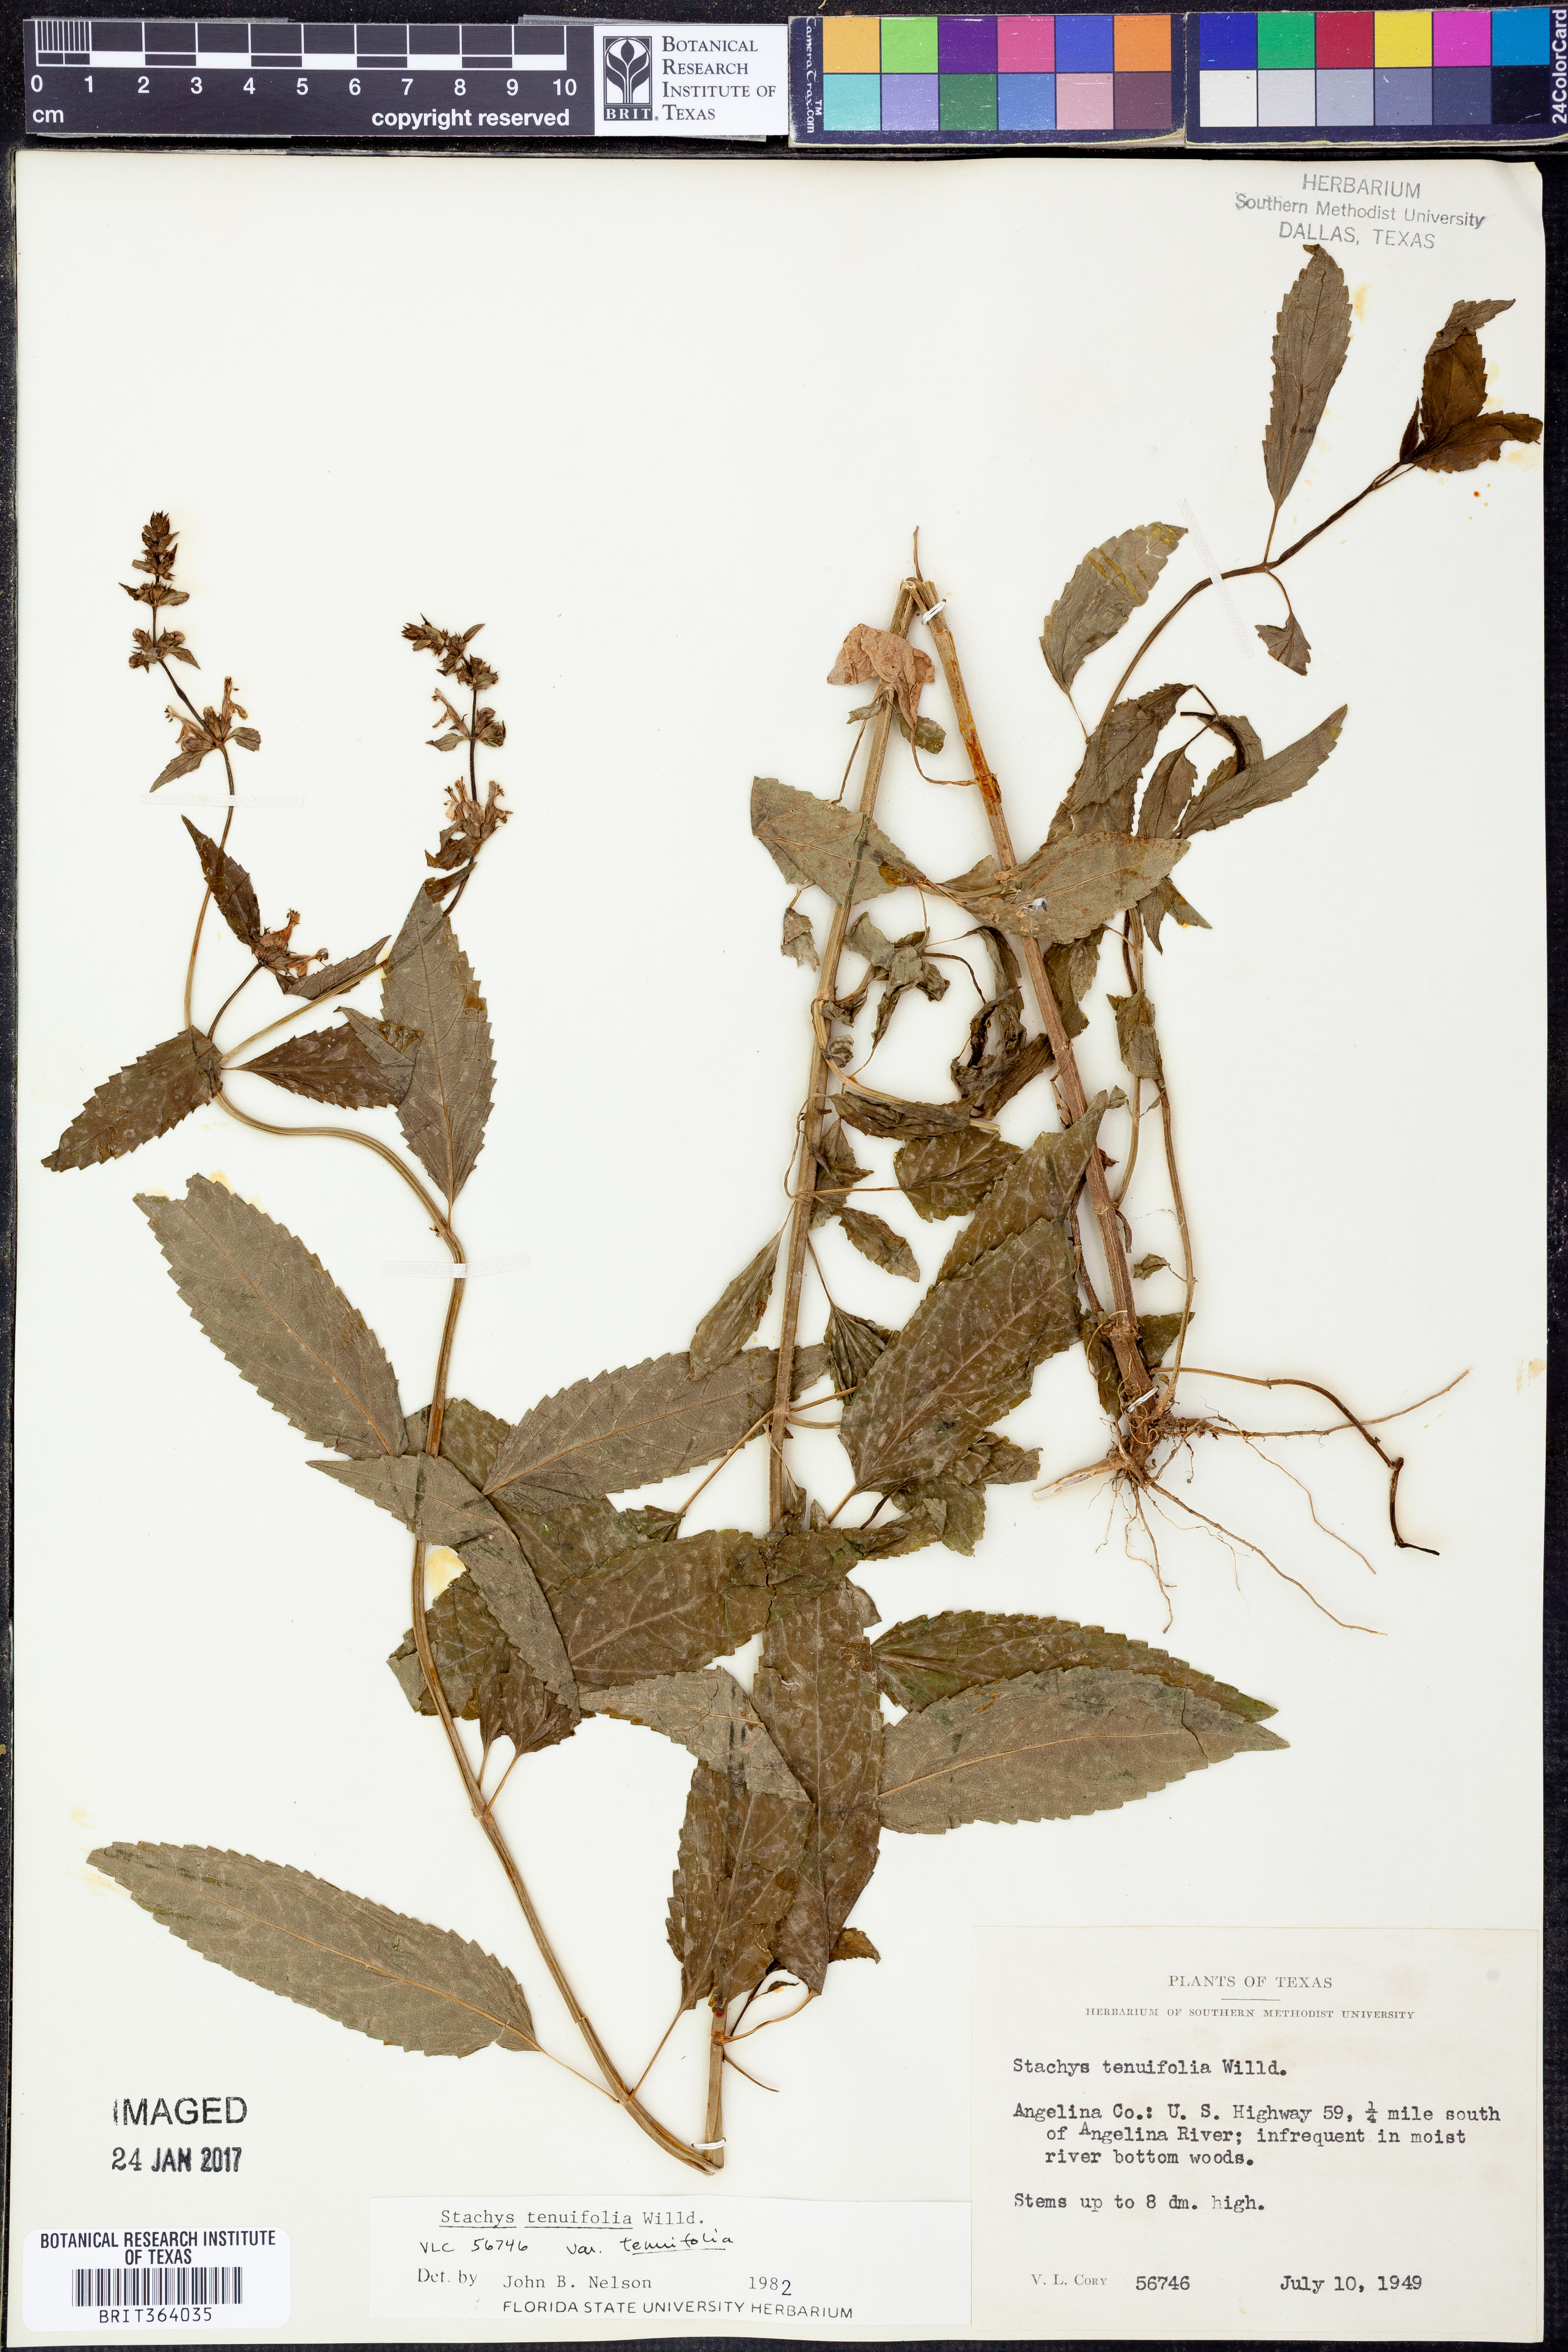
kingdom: Plantae
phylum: Tracheophyta
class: Magnoliopsida
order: Lamiales
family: Lamiaceae
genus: Stachys
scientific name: Stachys tenuifolia
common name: Smooth hedge-nettle
